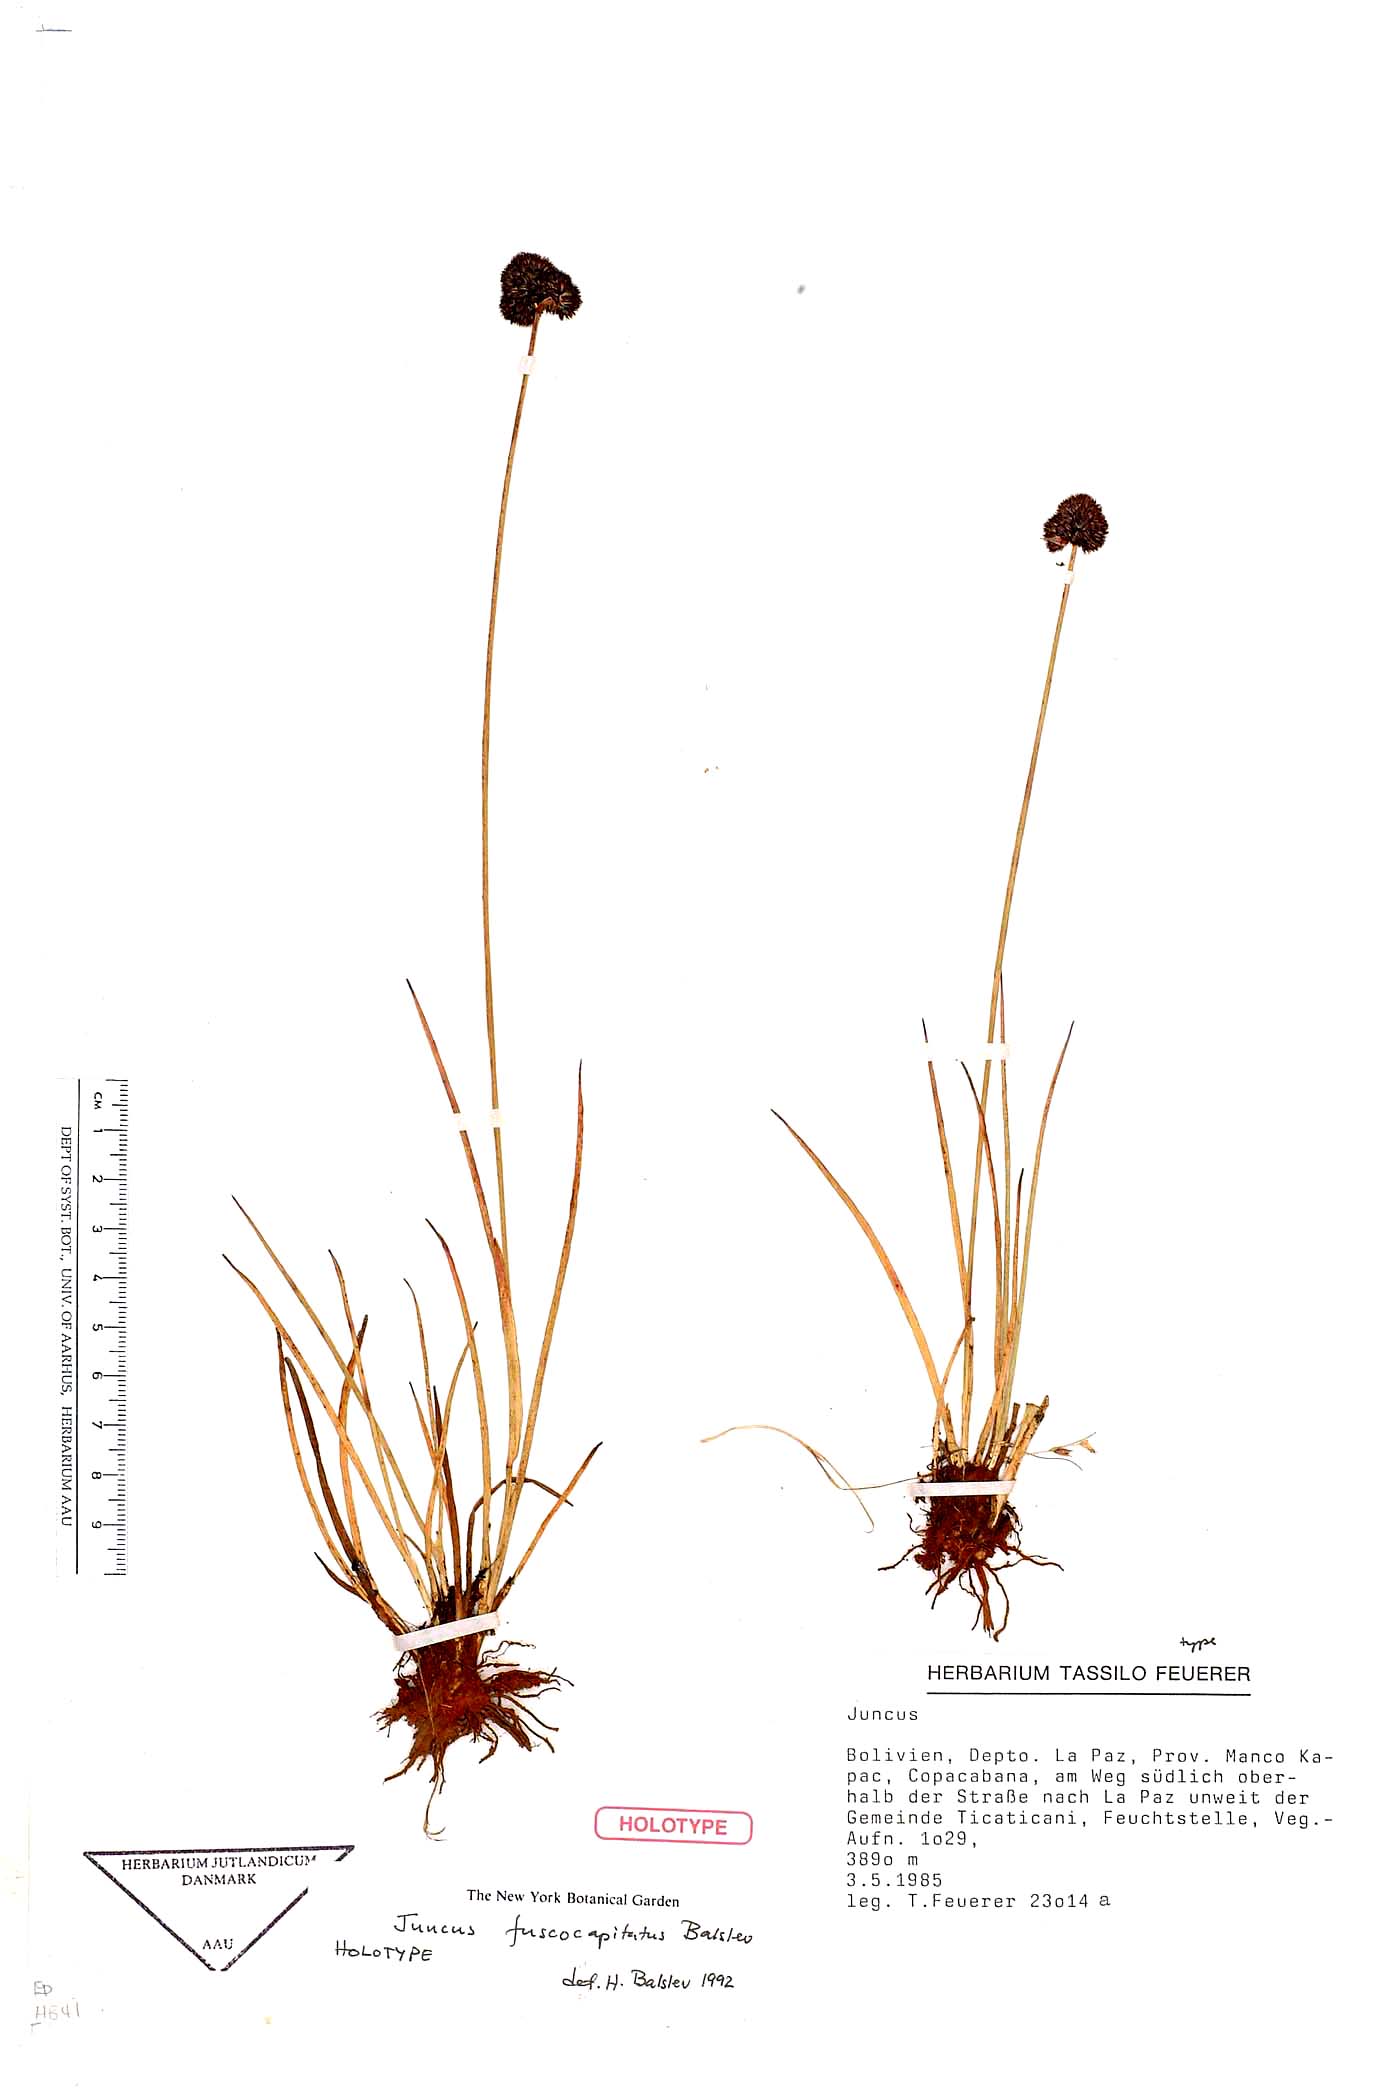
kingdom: Plantae
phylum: Tracheophyta
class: Liliopsida
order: Poales
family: Juncaceae
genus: Juncus
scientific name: Juncus pallescens
